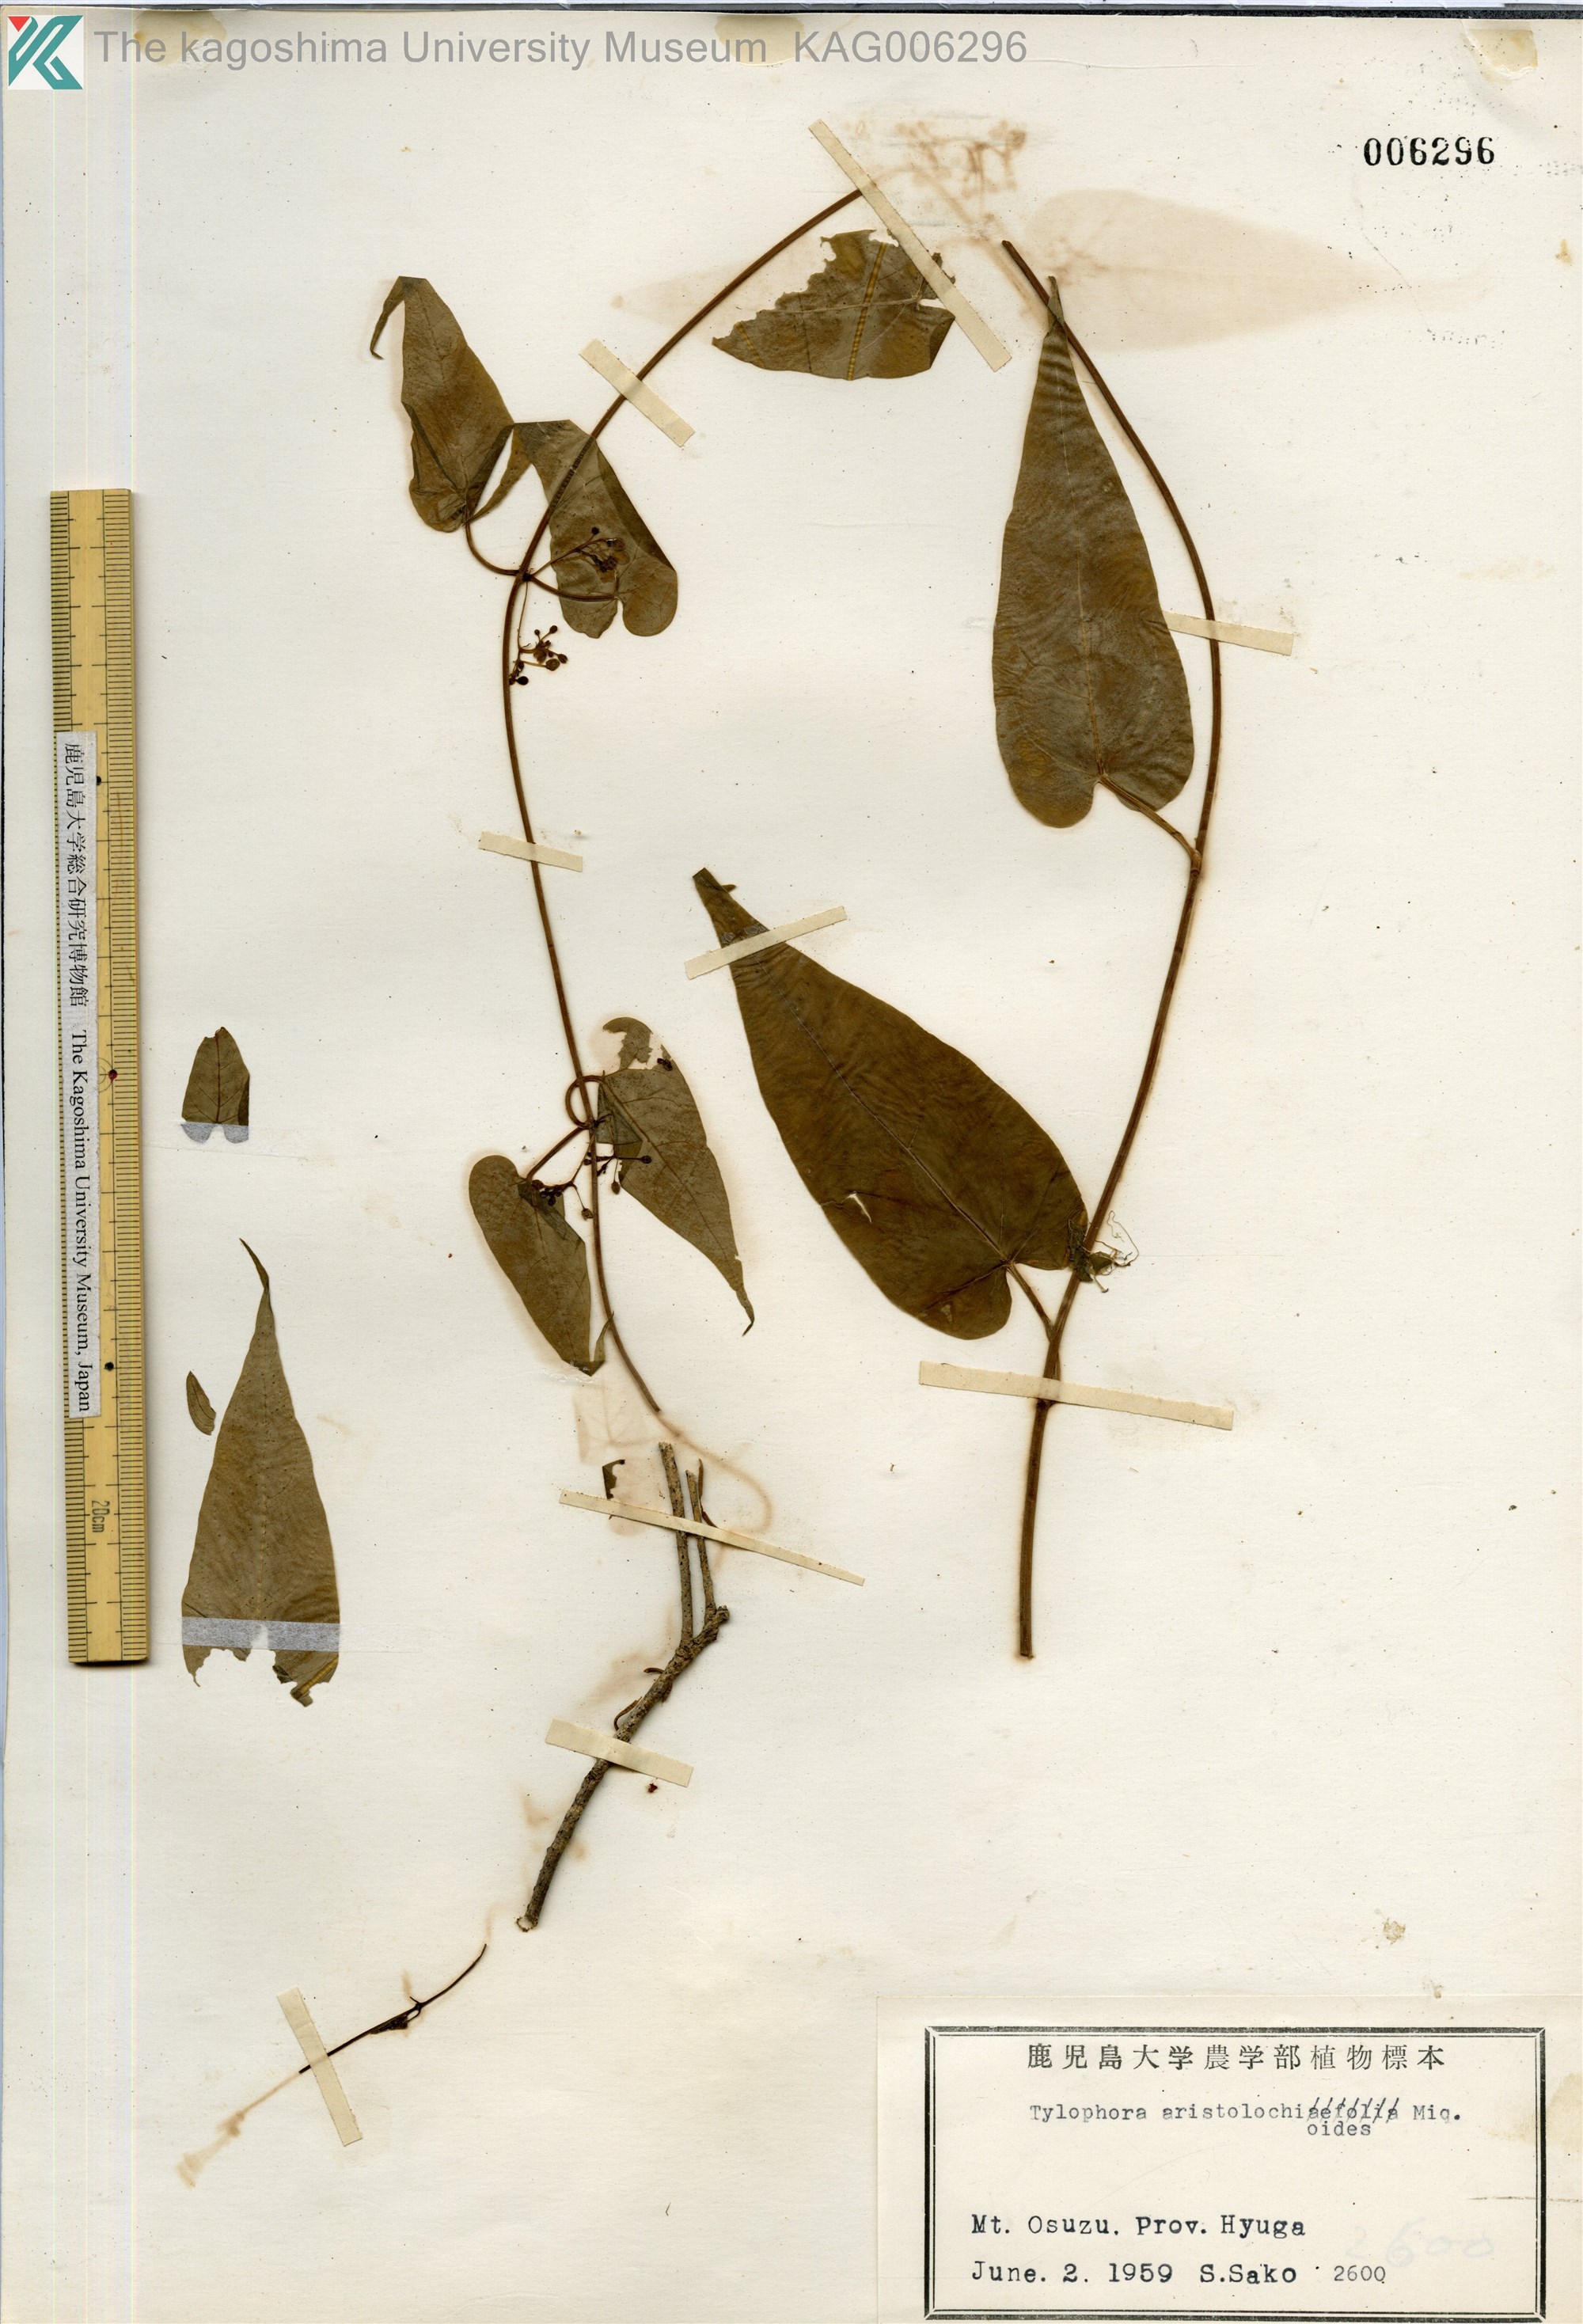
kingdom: Plantae
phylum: Tracheophyta
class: Magnoliopsida
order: Gentianales
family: Apocynaceae
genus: Vincetoxicum
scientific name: Vincetoxicum aristolochioides
